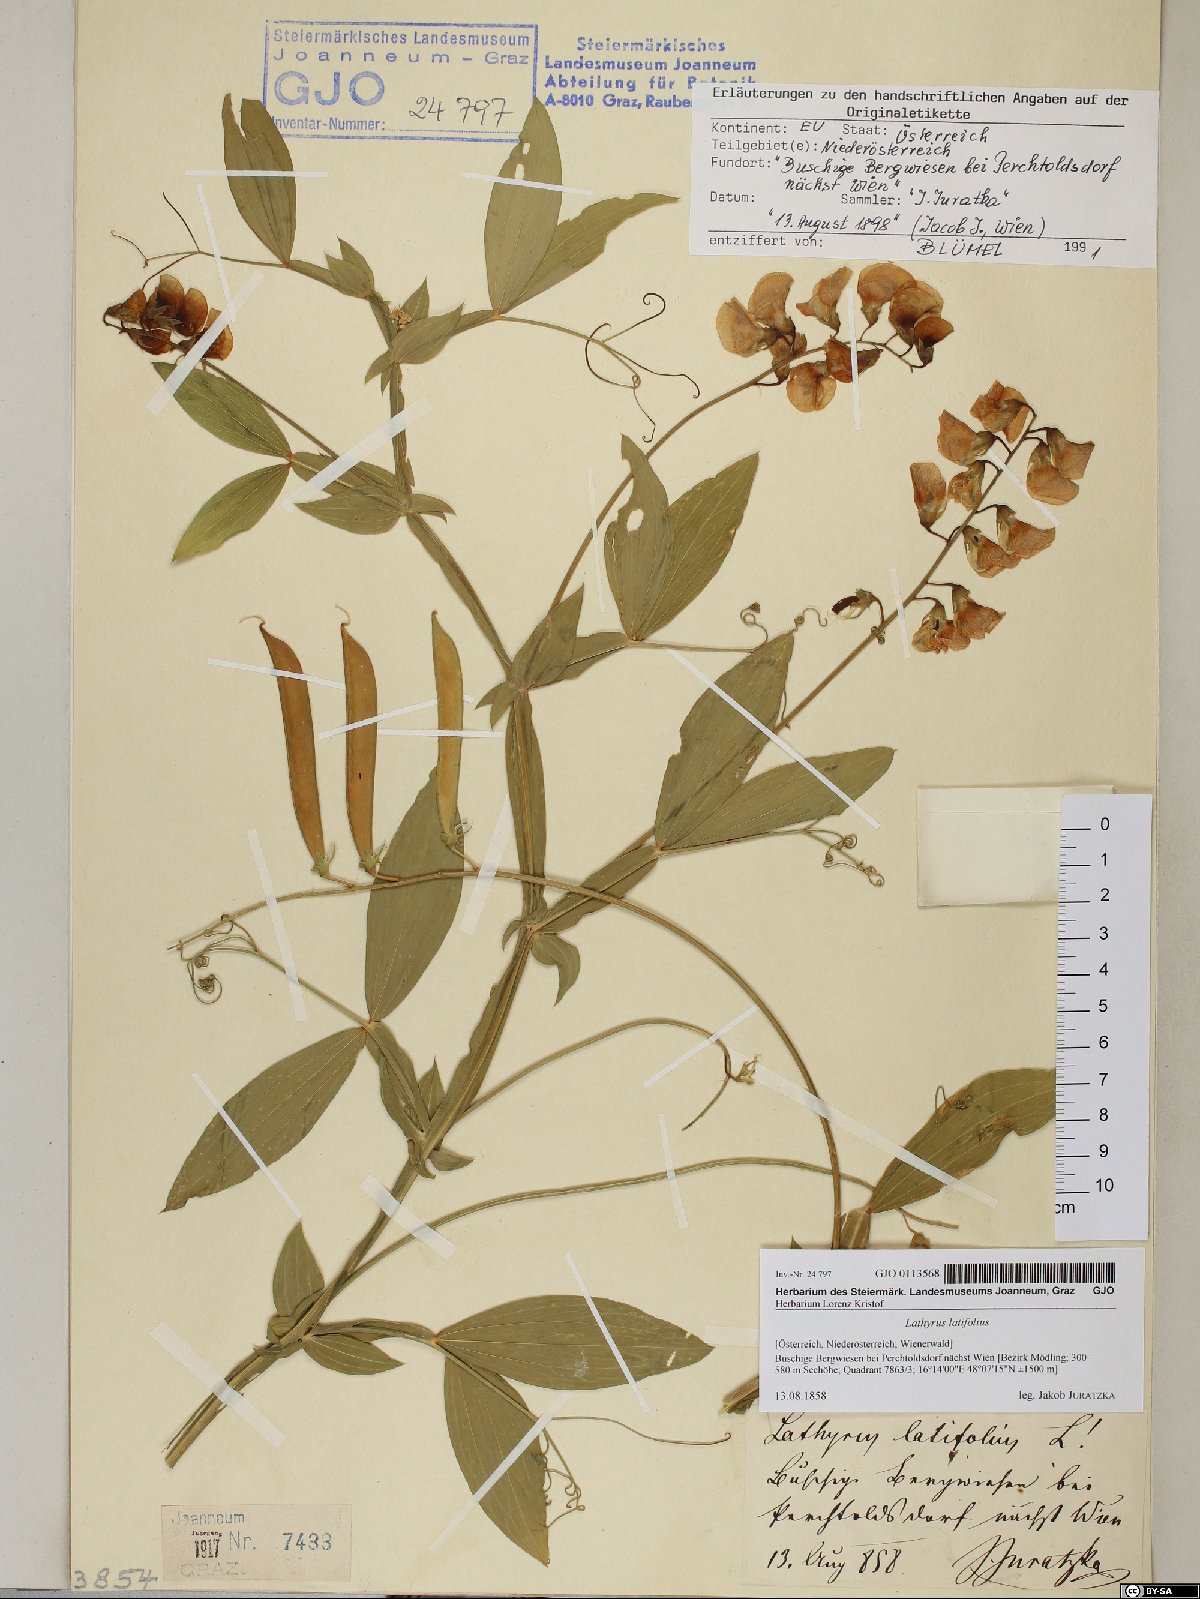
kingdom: Plantae
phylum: Tracheophyta
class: Magnoliopsida
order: Fabales
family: Fabaceae
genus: Lathyrus
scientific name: Lathyrus latifolius
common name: Perennial pea
